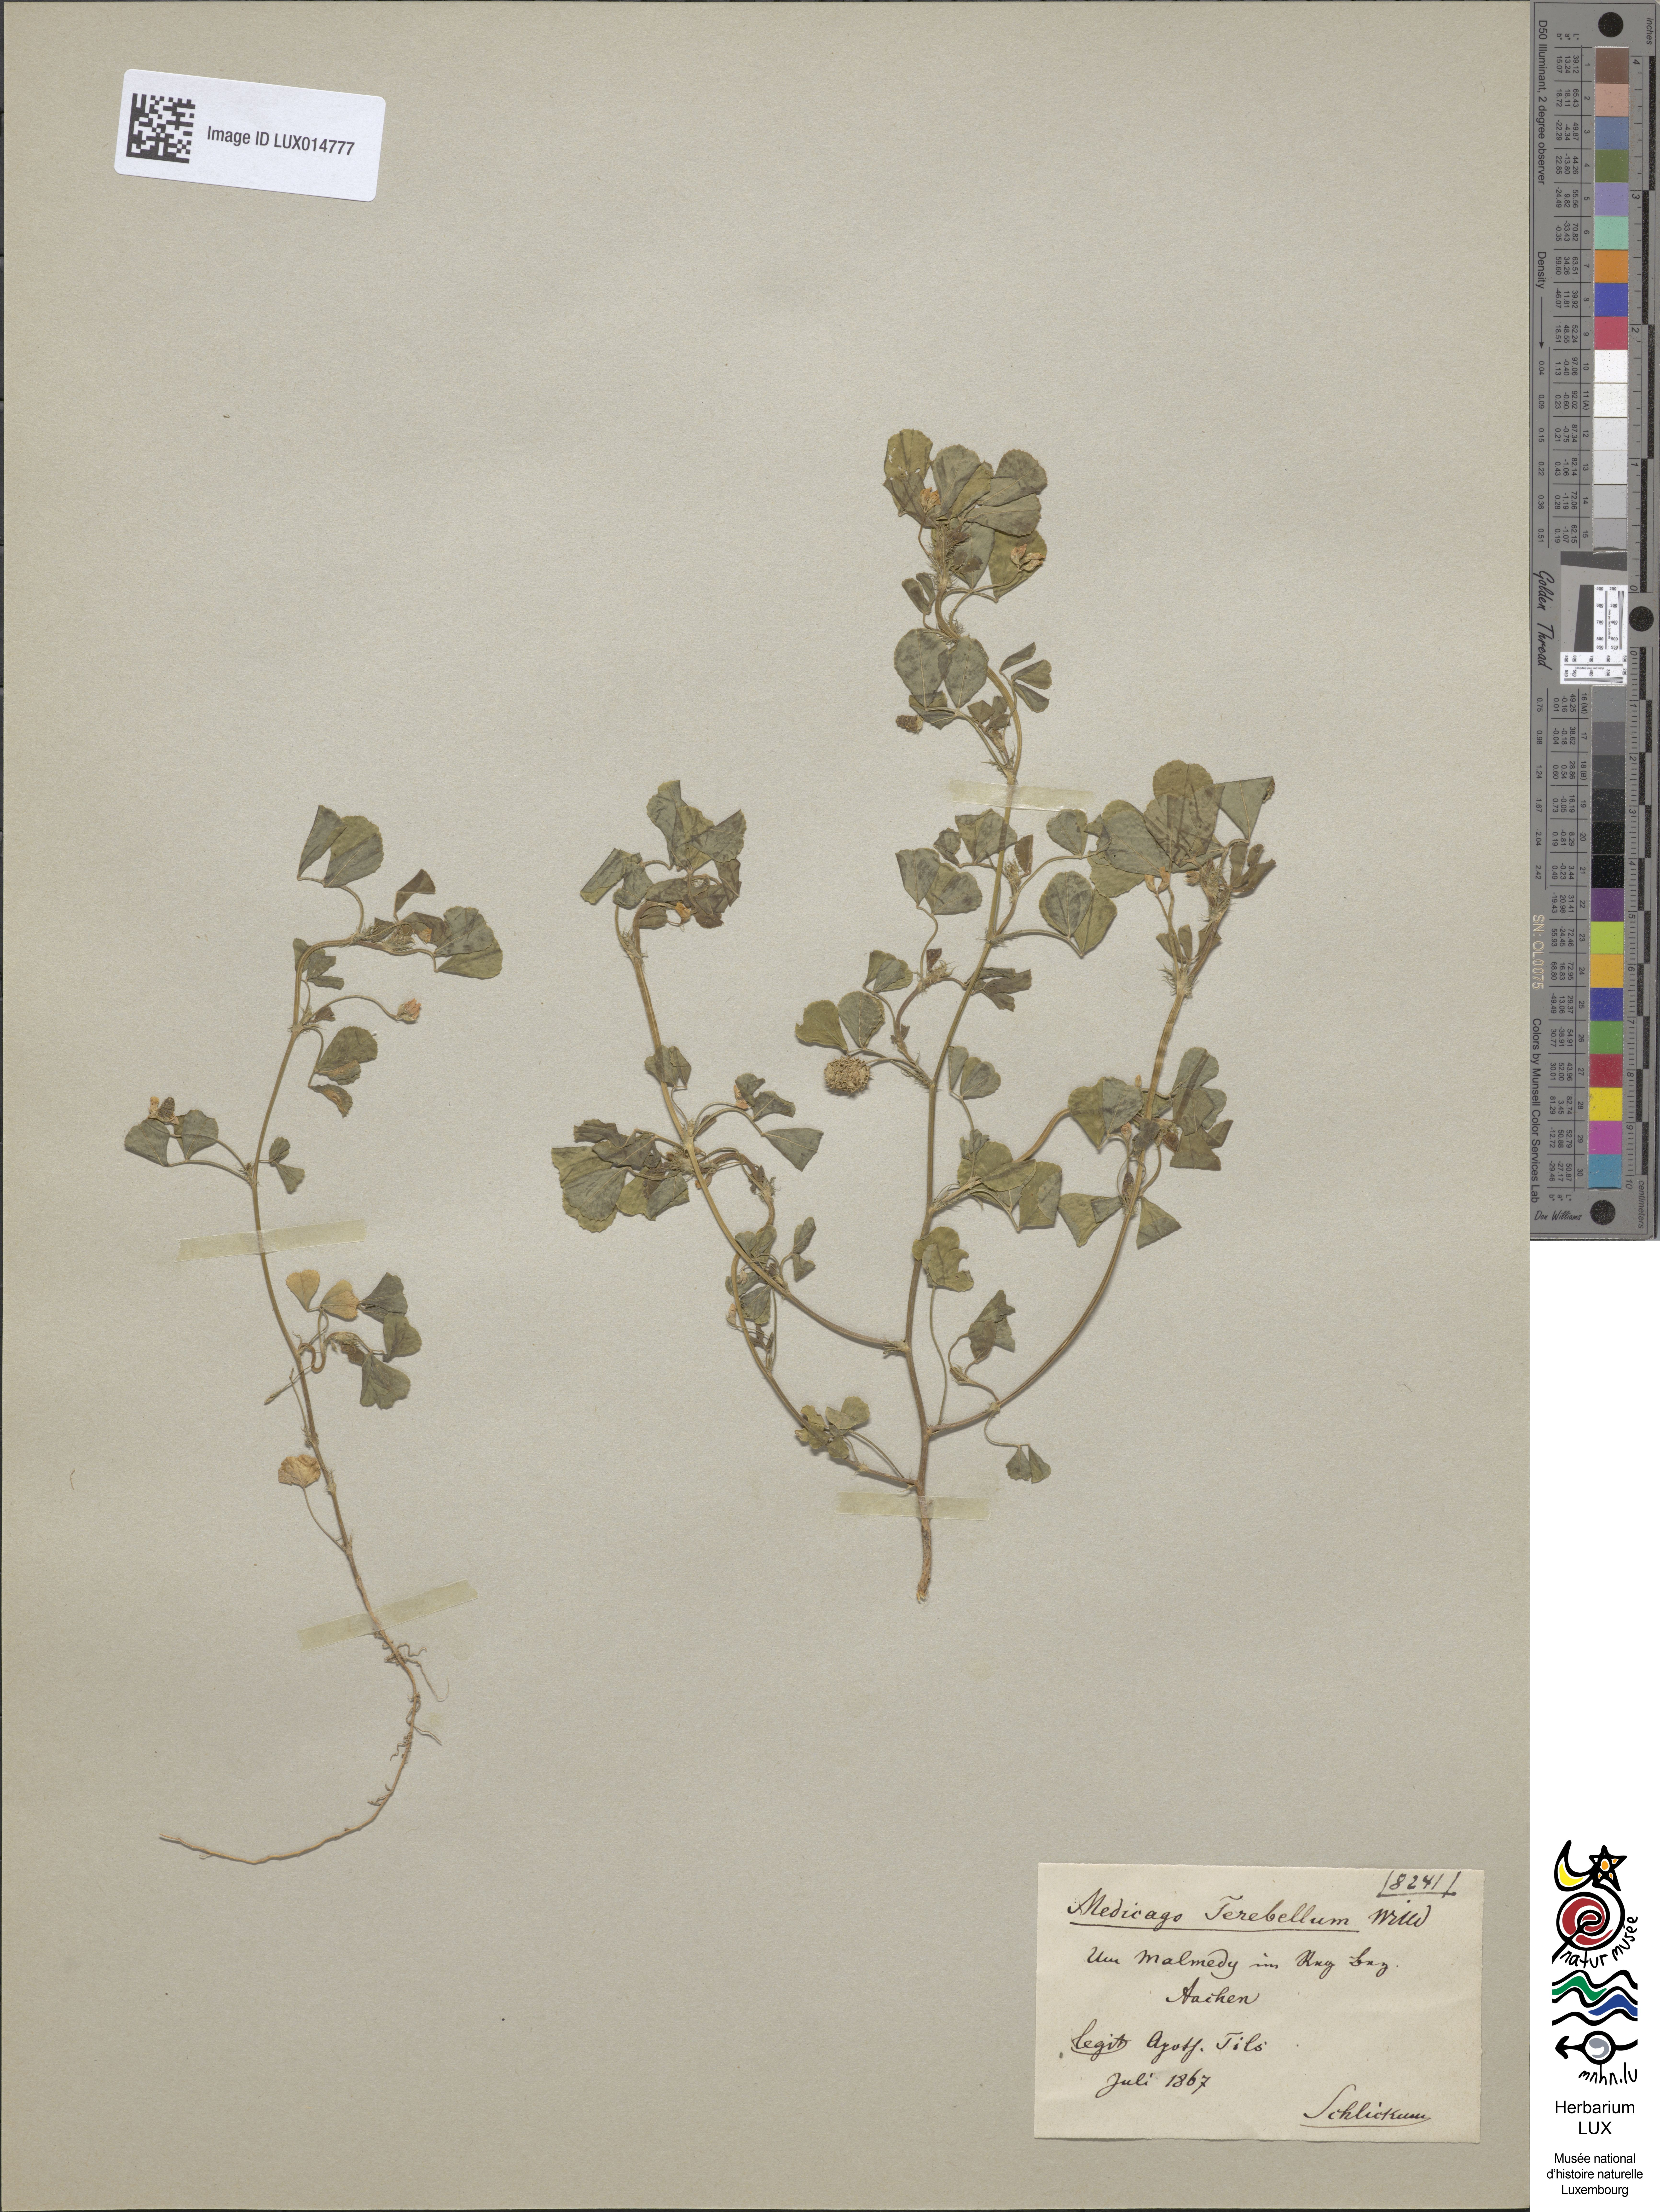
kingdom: Plantae
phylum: Tracheophyta
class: Magnoliopsida
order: Fabales
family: Fabaceae
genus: Medicago
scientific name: Medicago polymorpha
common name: Burclover
